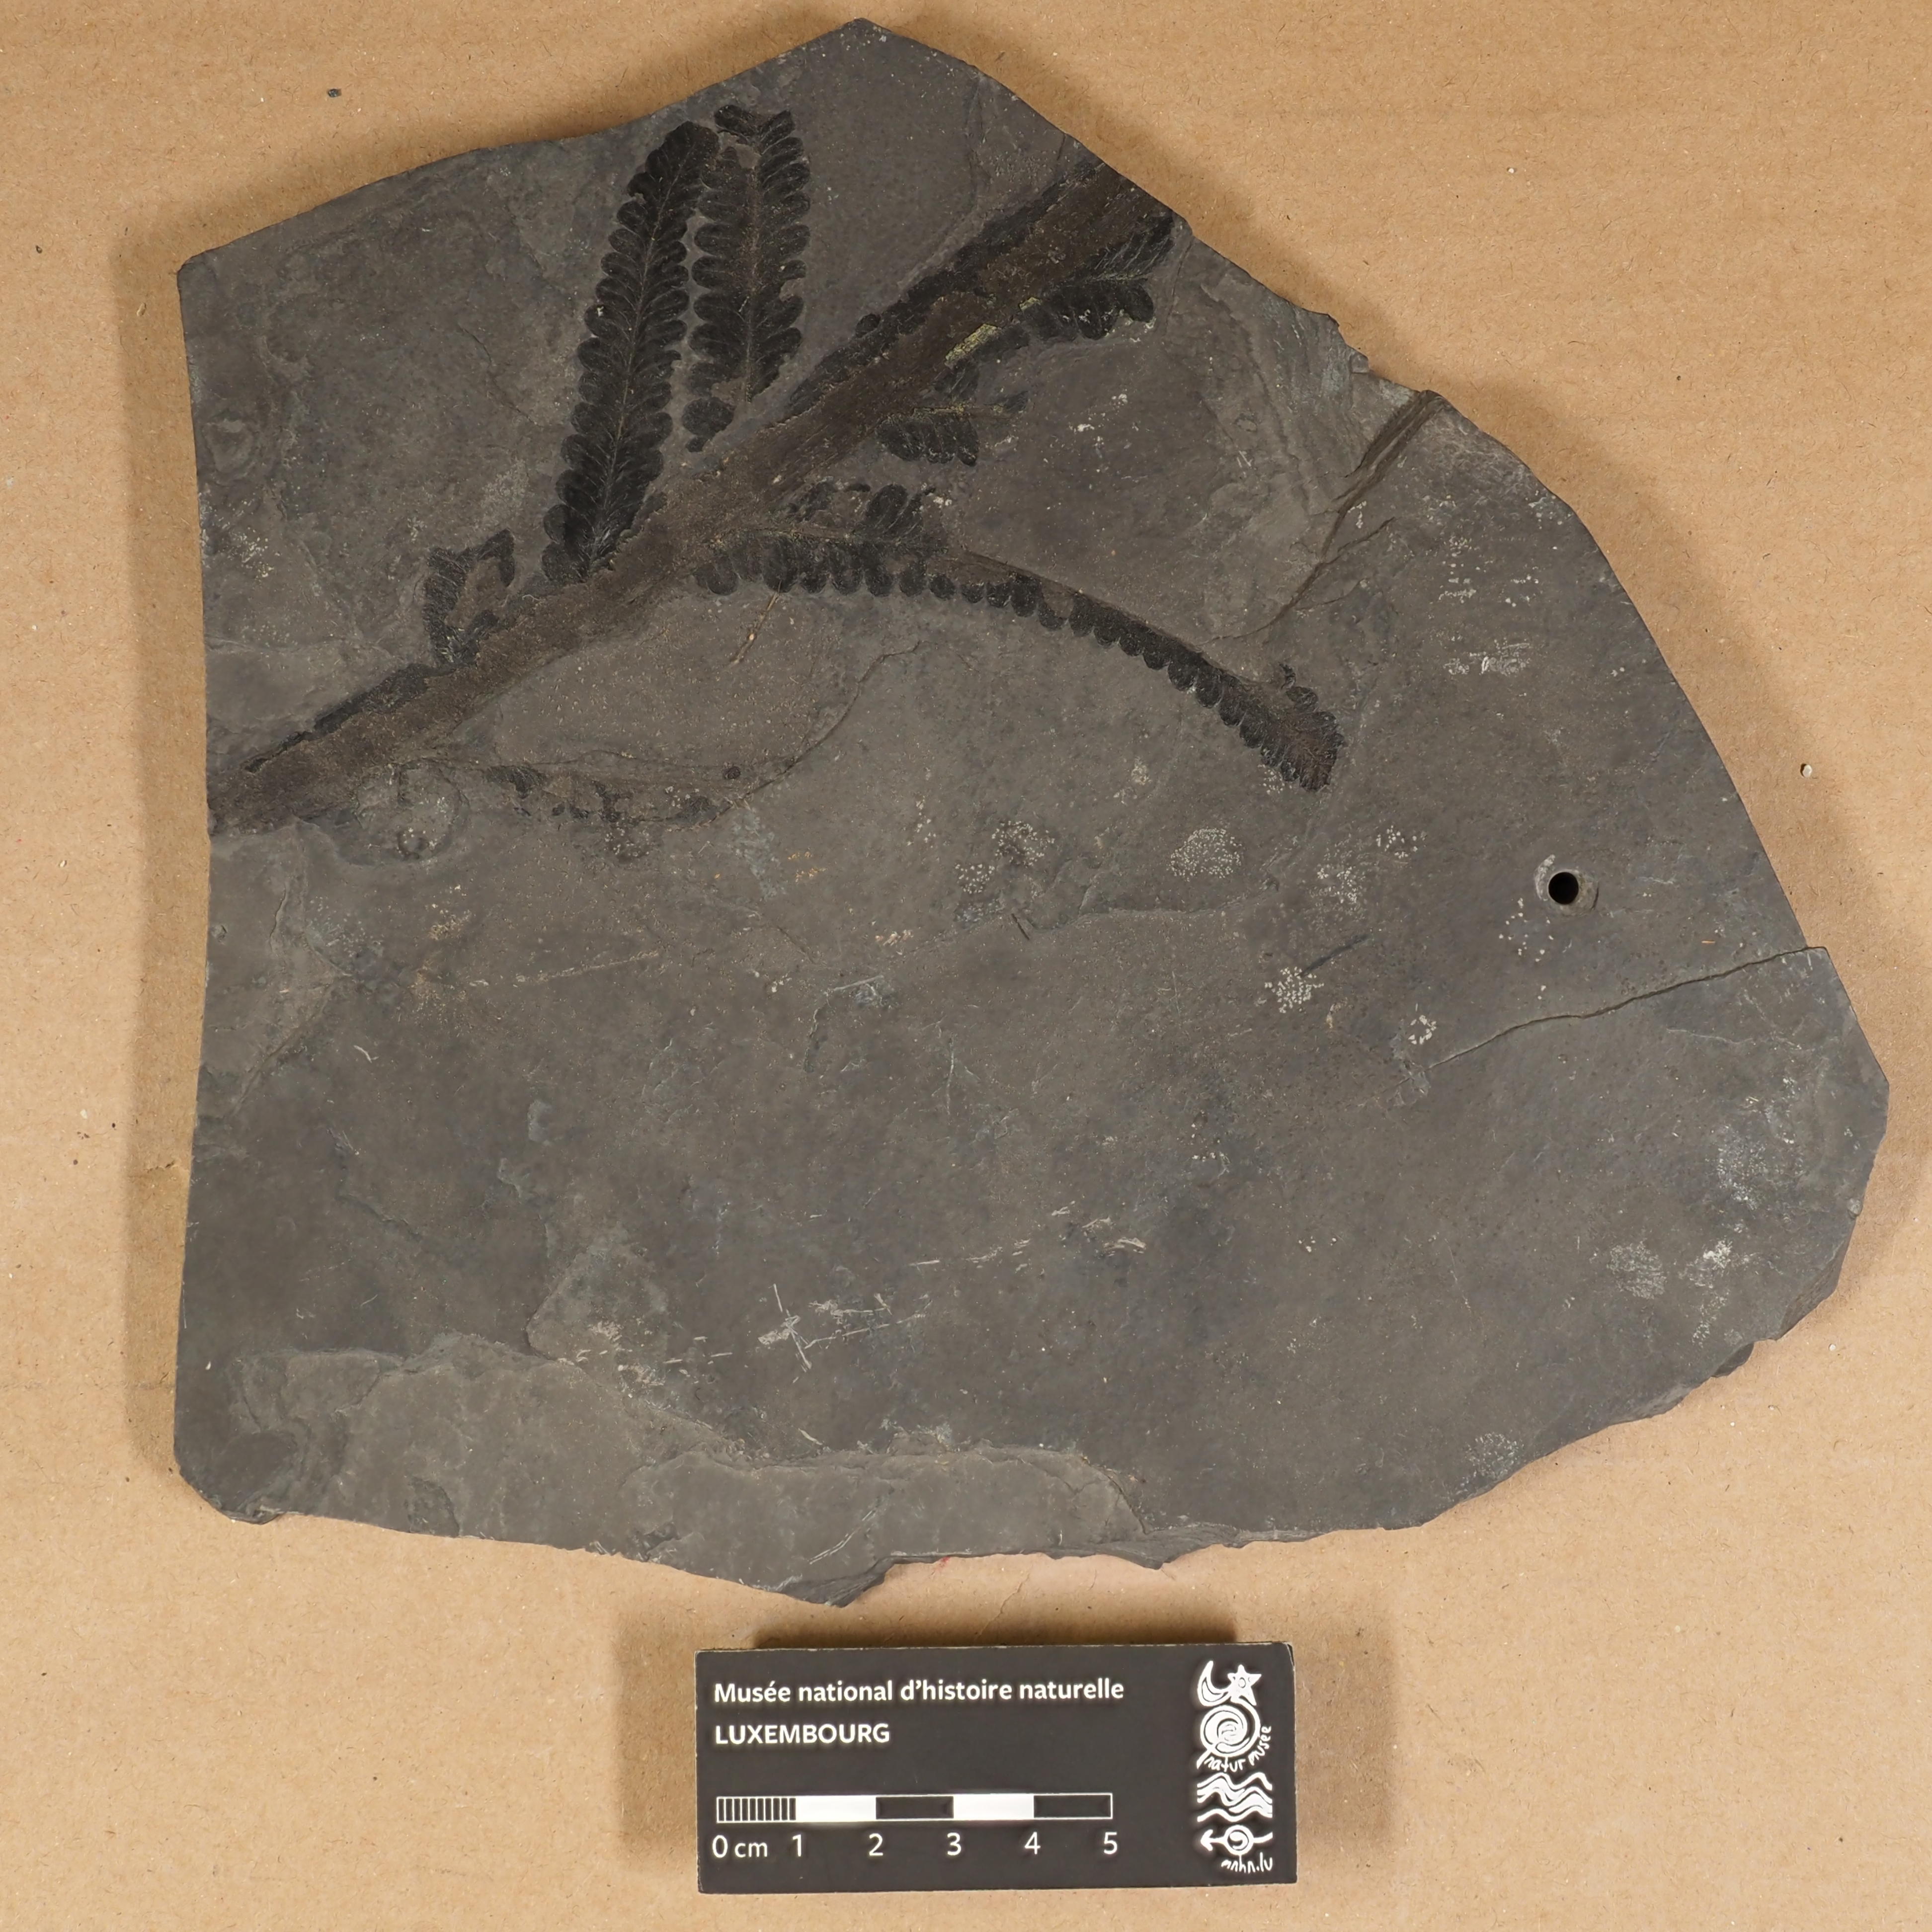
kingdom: Plantae
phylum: Tracheophyta
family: Autuniaceae
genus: Autunia
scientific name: Autunia
